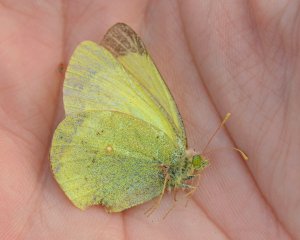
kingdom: Animalia
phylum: Arthropoda
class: Insecta
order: Lepidoptera
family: Pieridae
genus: Colias
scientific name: Colias pelidne
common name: Pelidne Sulphur
